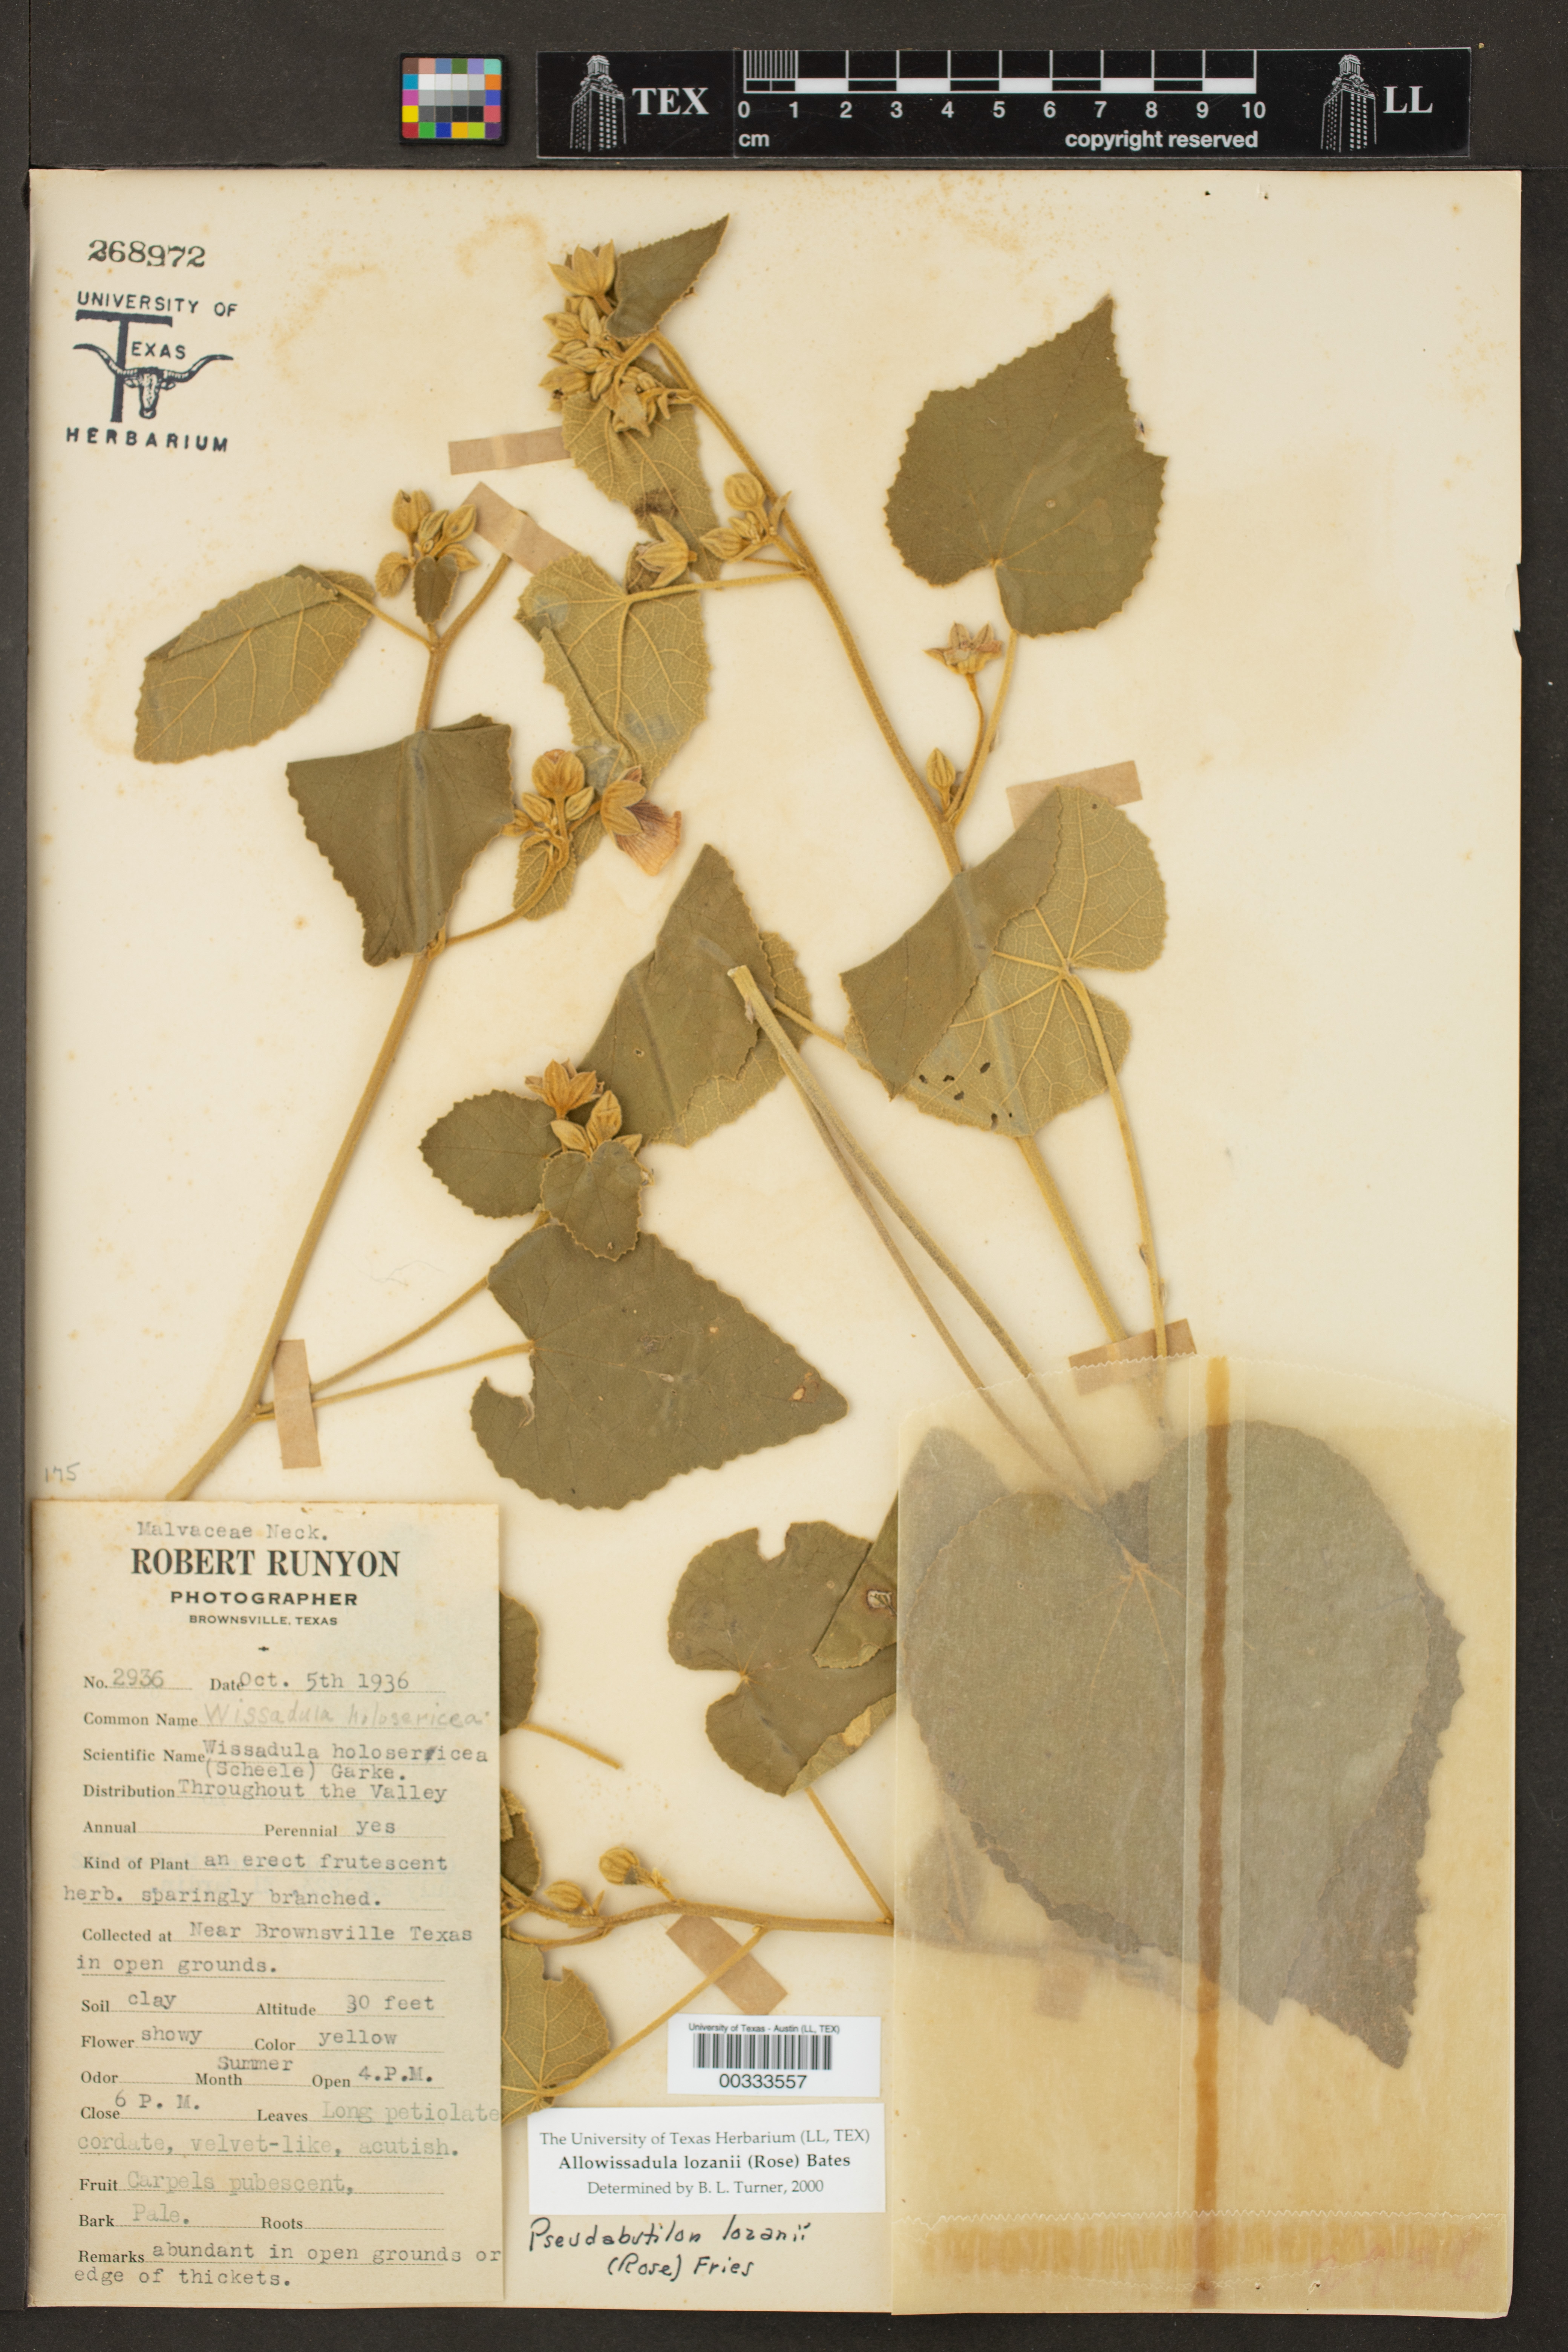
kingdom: Plantae
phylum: Tracheophyta
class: Magnoliopsida
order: Malvales
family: Malvaceae
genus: Allowissadula
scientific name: Allowissadula lozanii
